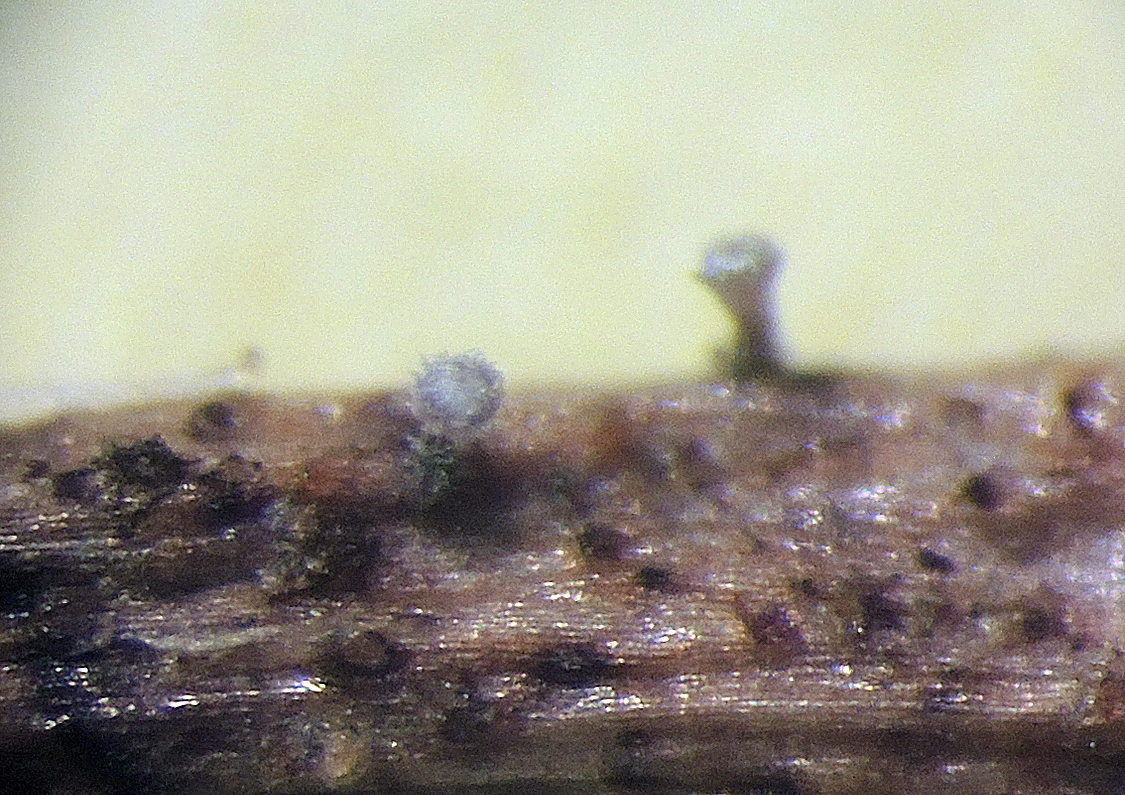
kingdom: Fungi
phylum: Ascomycota
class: Leotiomycetes
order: Helotiales
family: Hyaloscyphaceae
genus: Hyalopeziza
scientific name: Hyalopeziza spinicola
